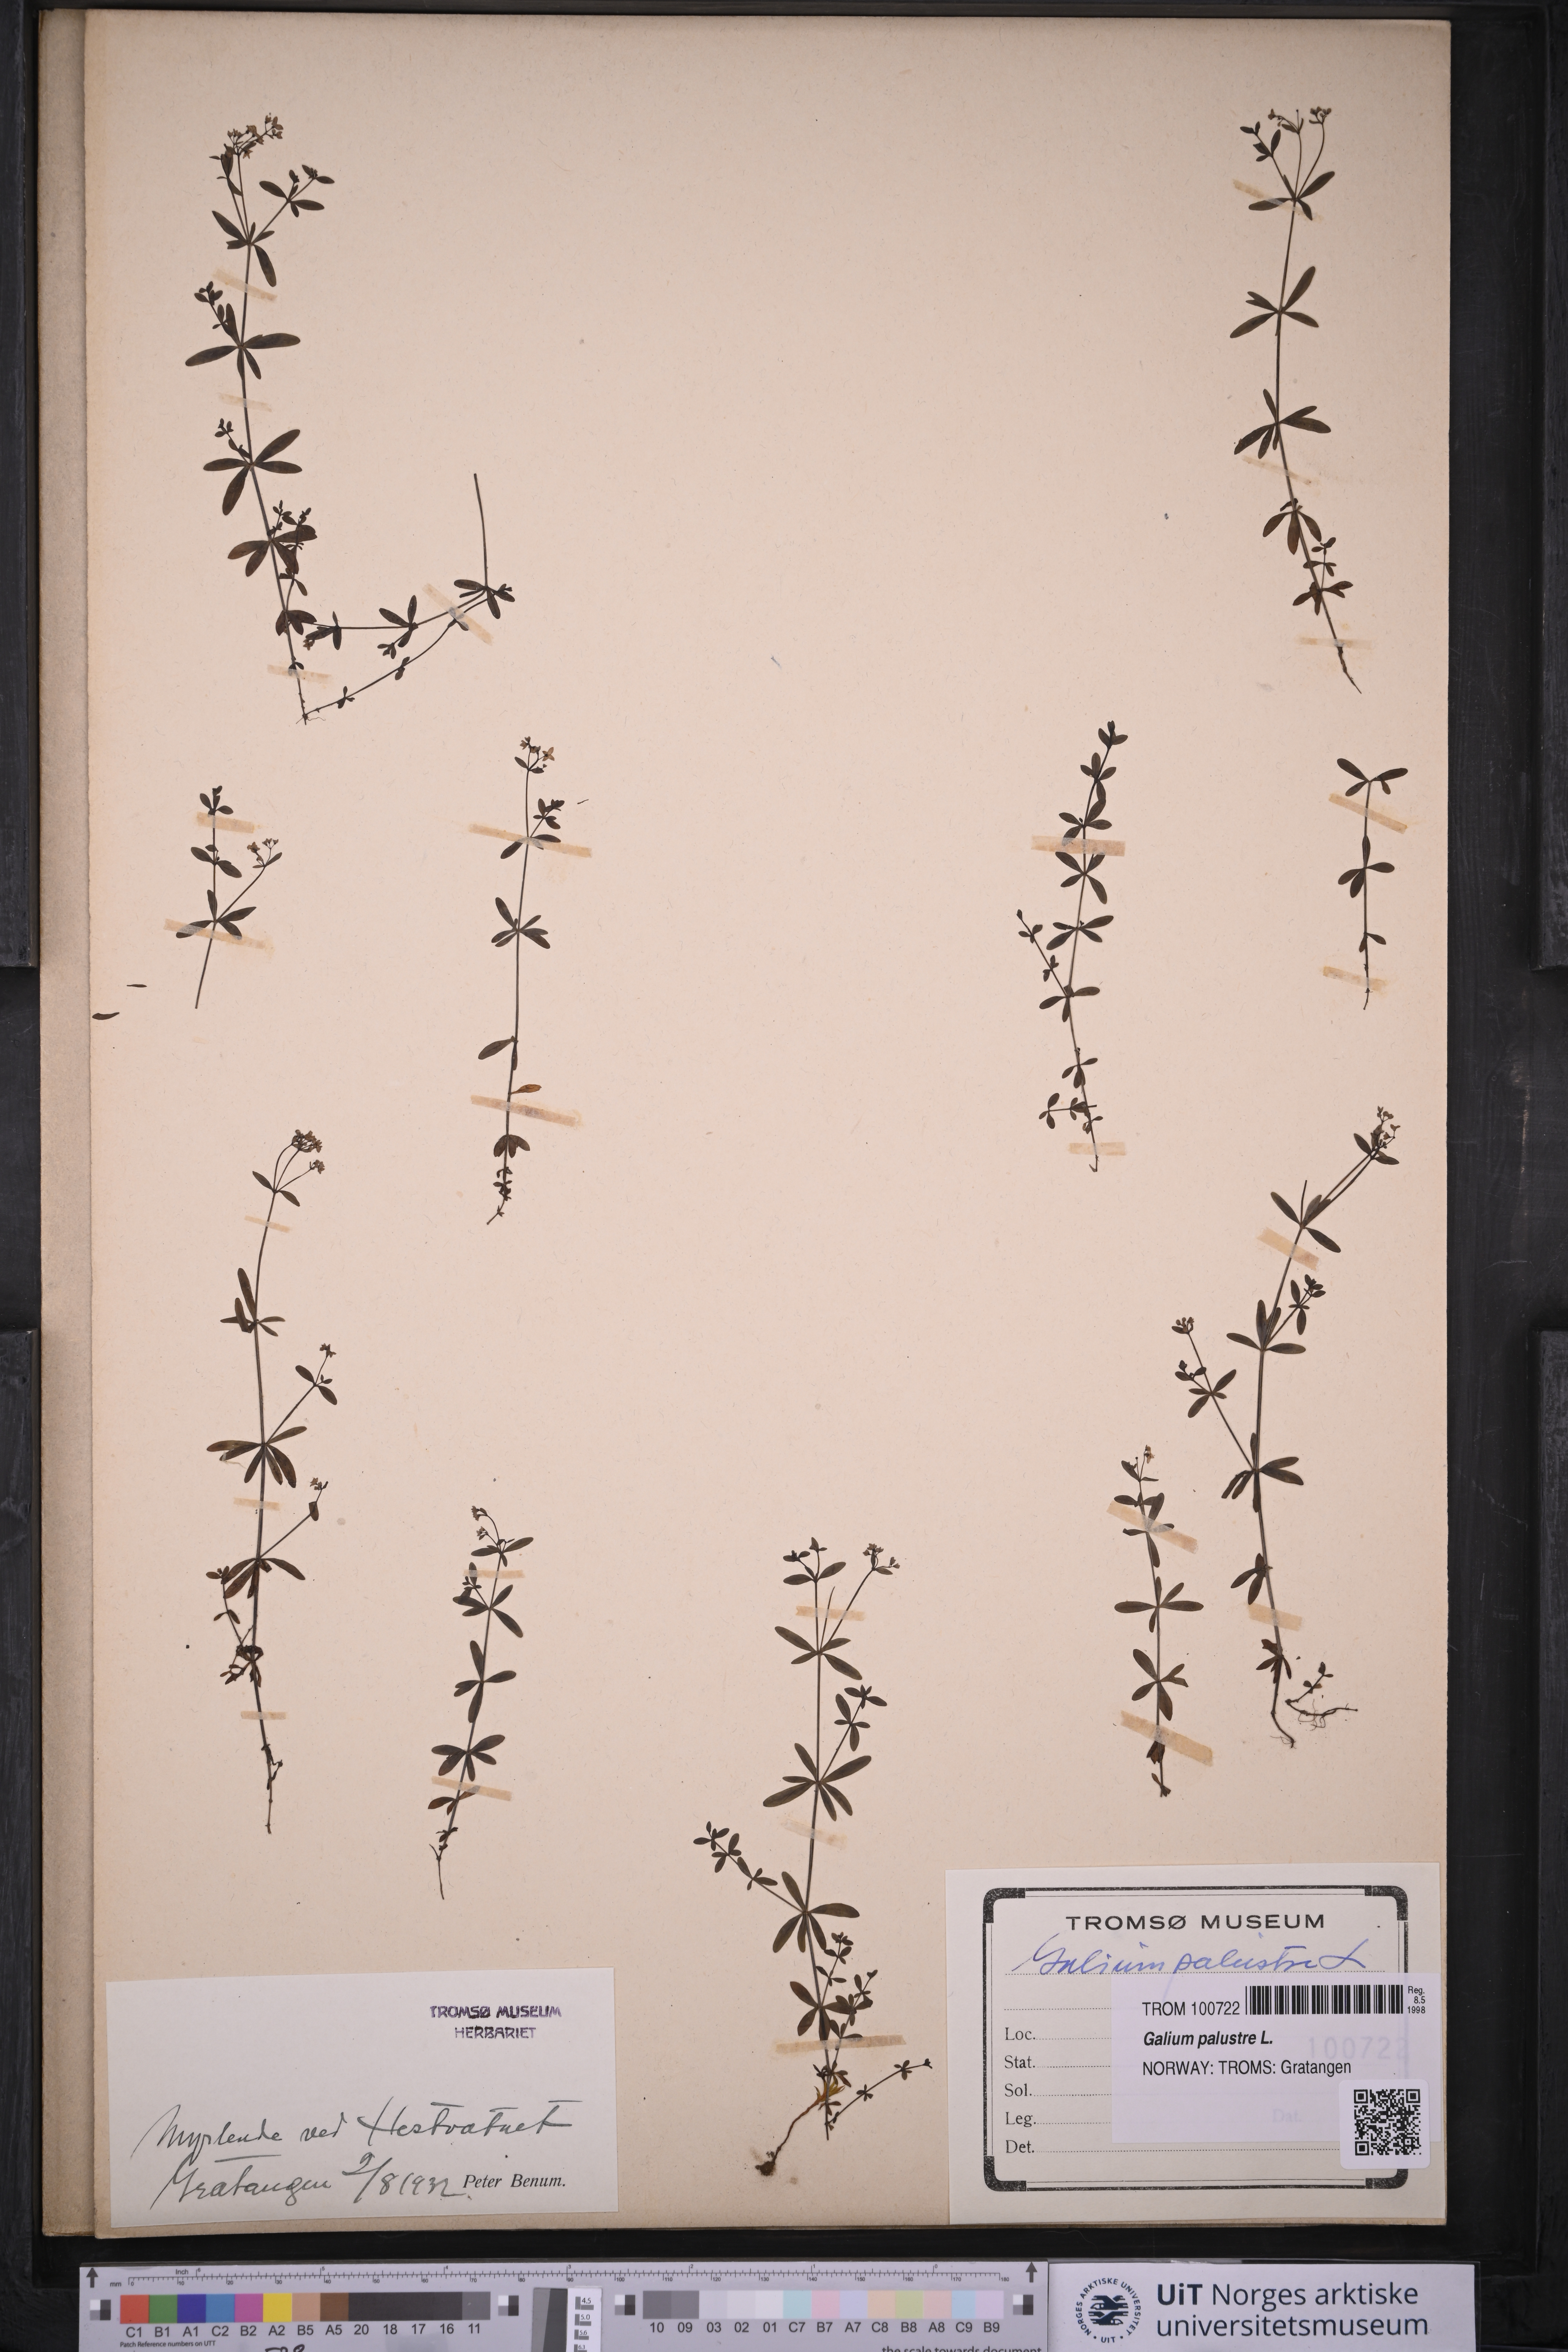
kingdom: Plantae
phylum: Tracheophyta
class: Magnoliopsida
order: Gentianales
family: Rubiaceae
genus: Galium
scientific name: Galium palustre
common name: Common marsh-bedstraw
